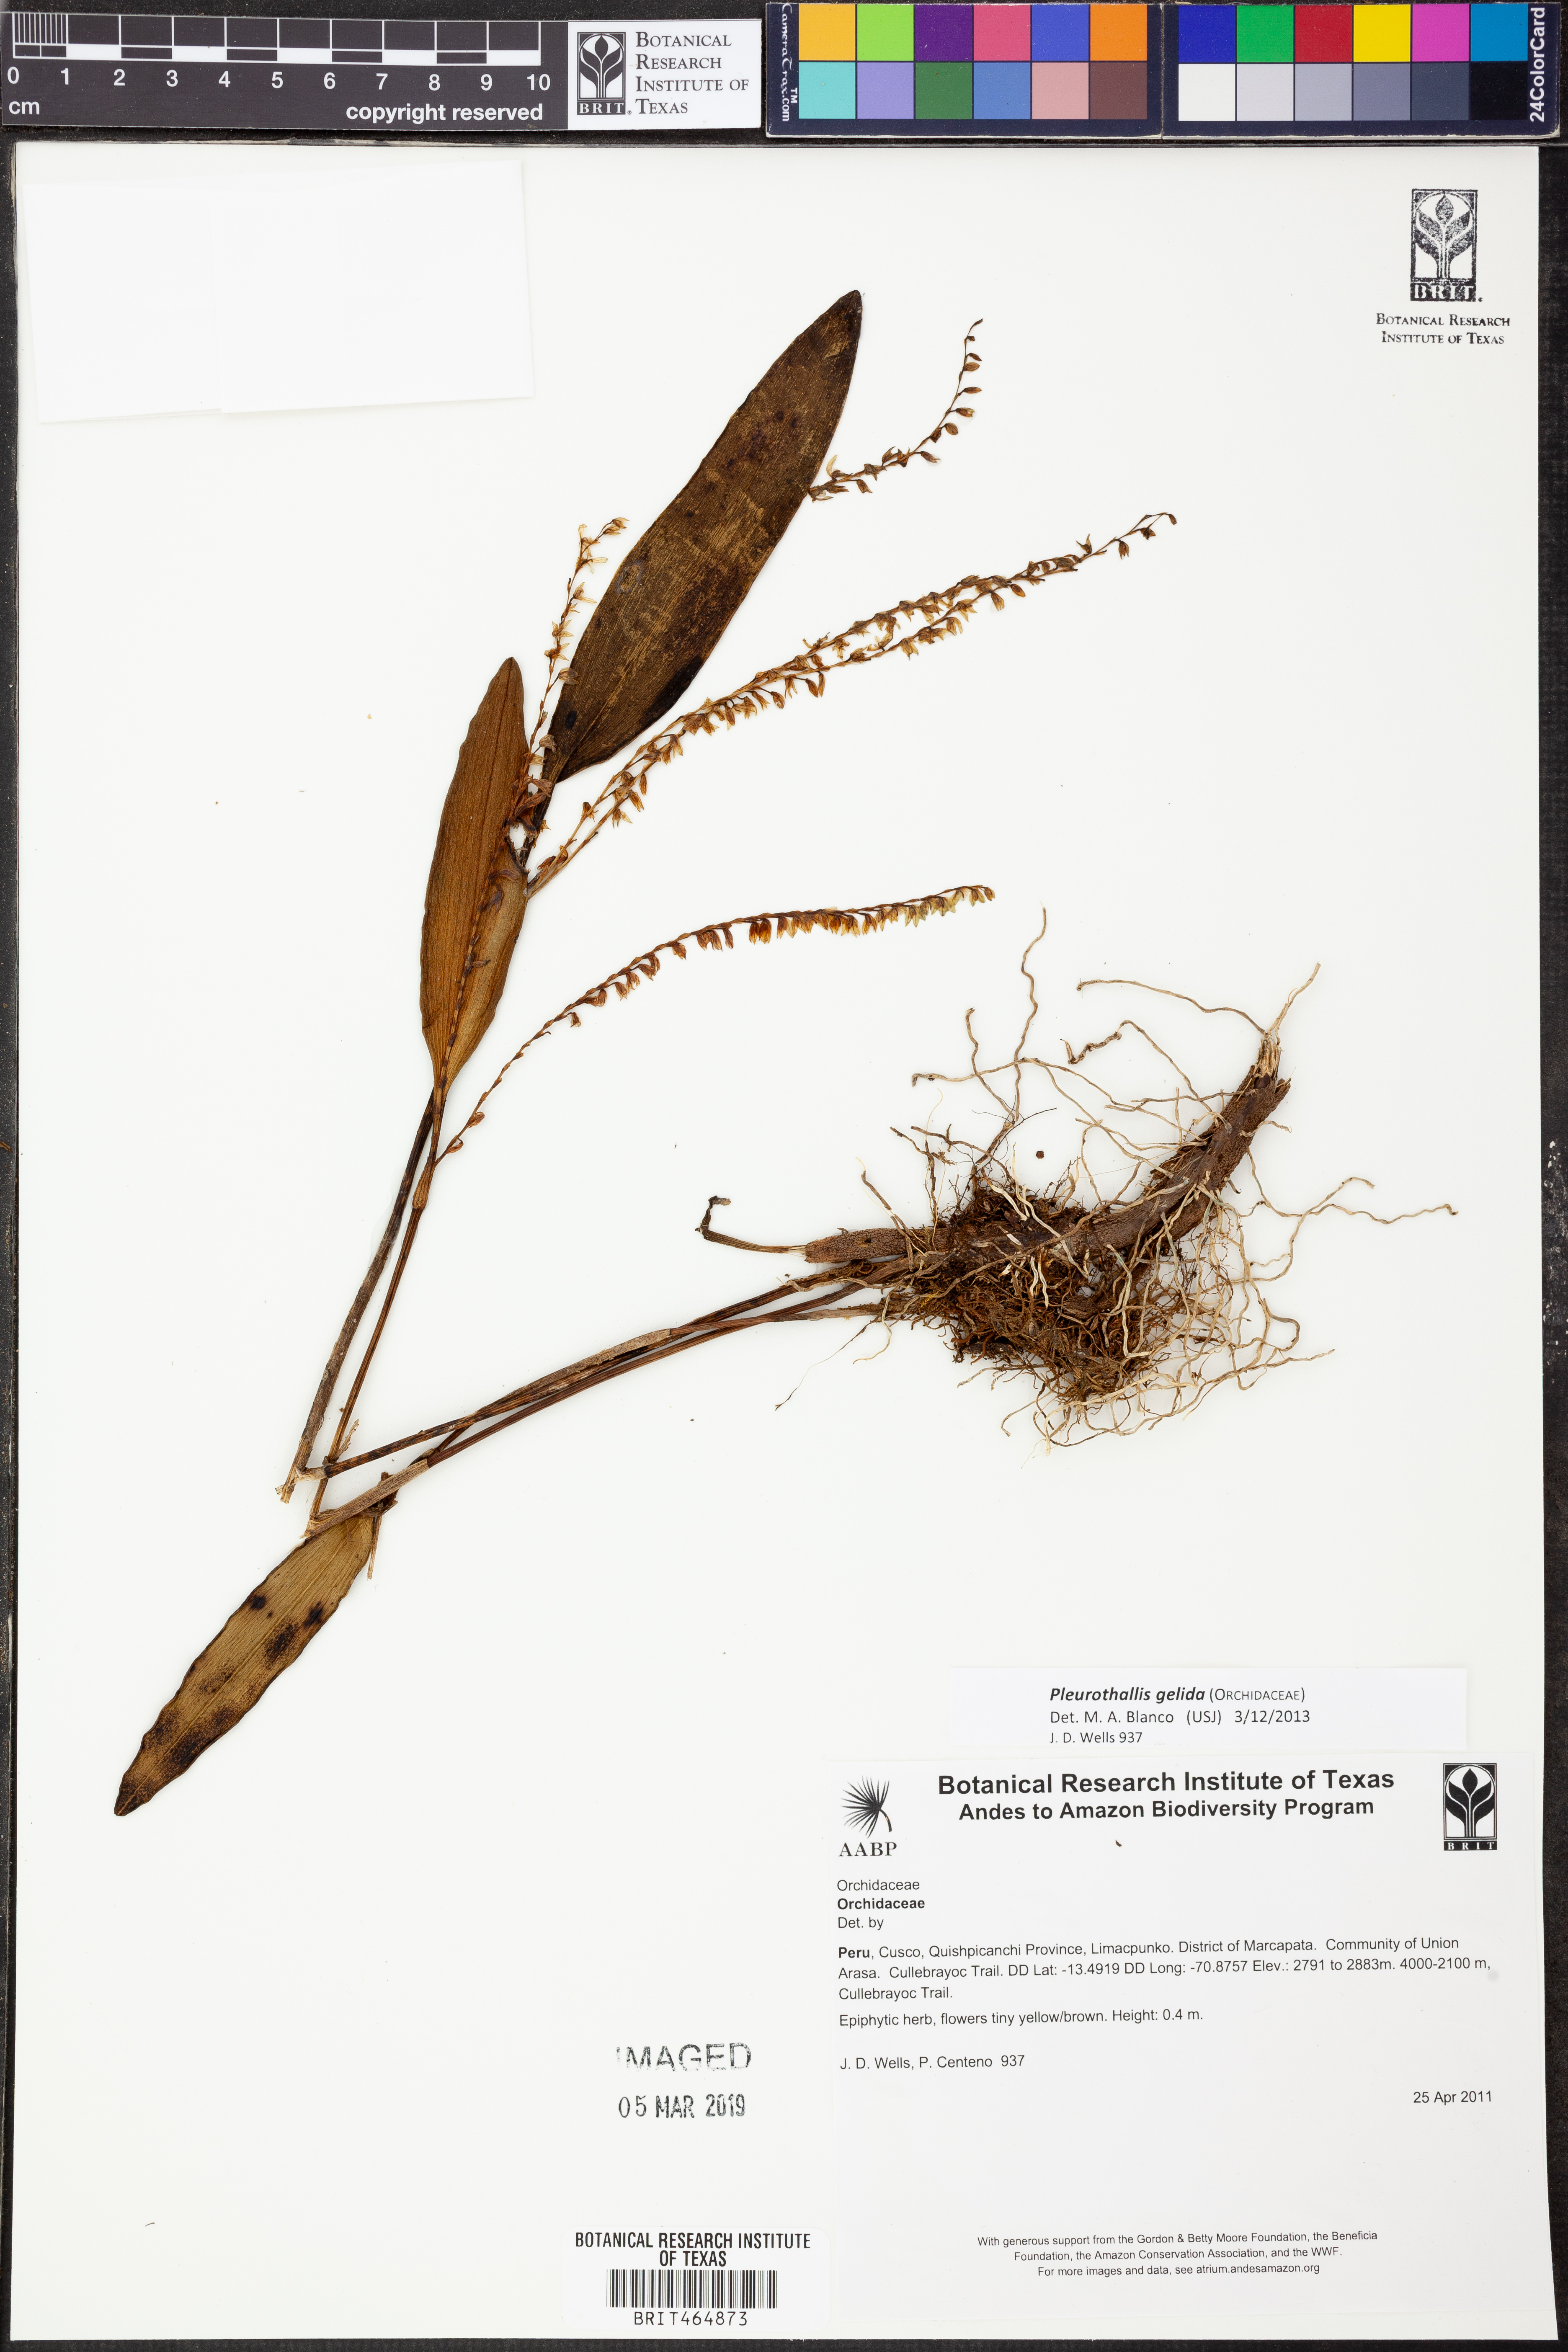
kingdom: Plantae
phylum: Tracheophyta
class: Liliopsida
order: Asparagales
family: Orchidaceae
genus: Stelis
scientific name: Stelis gelida
